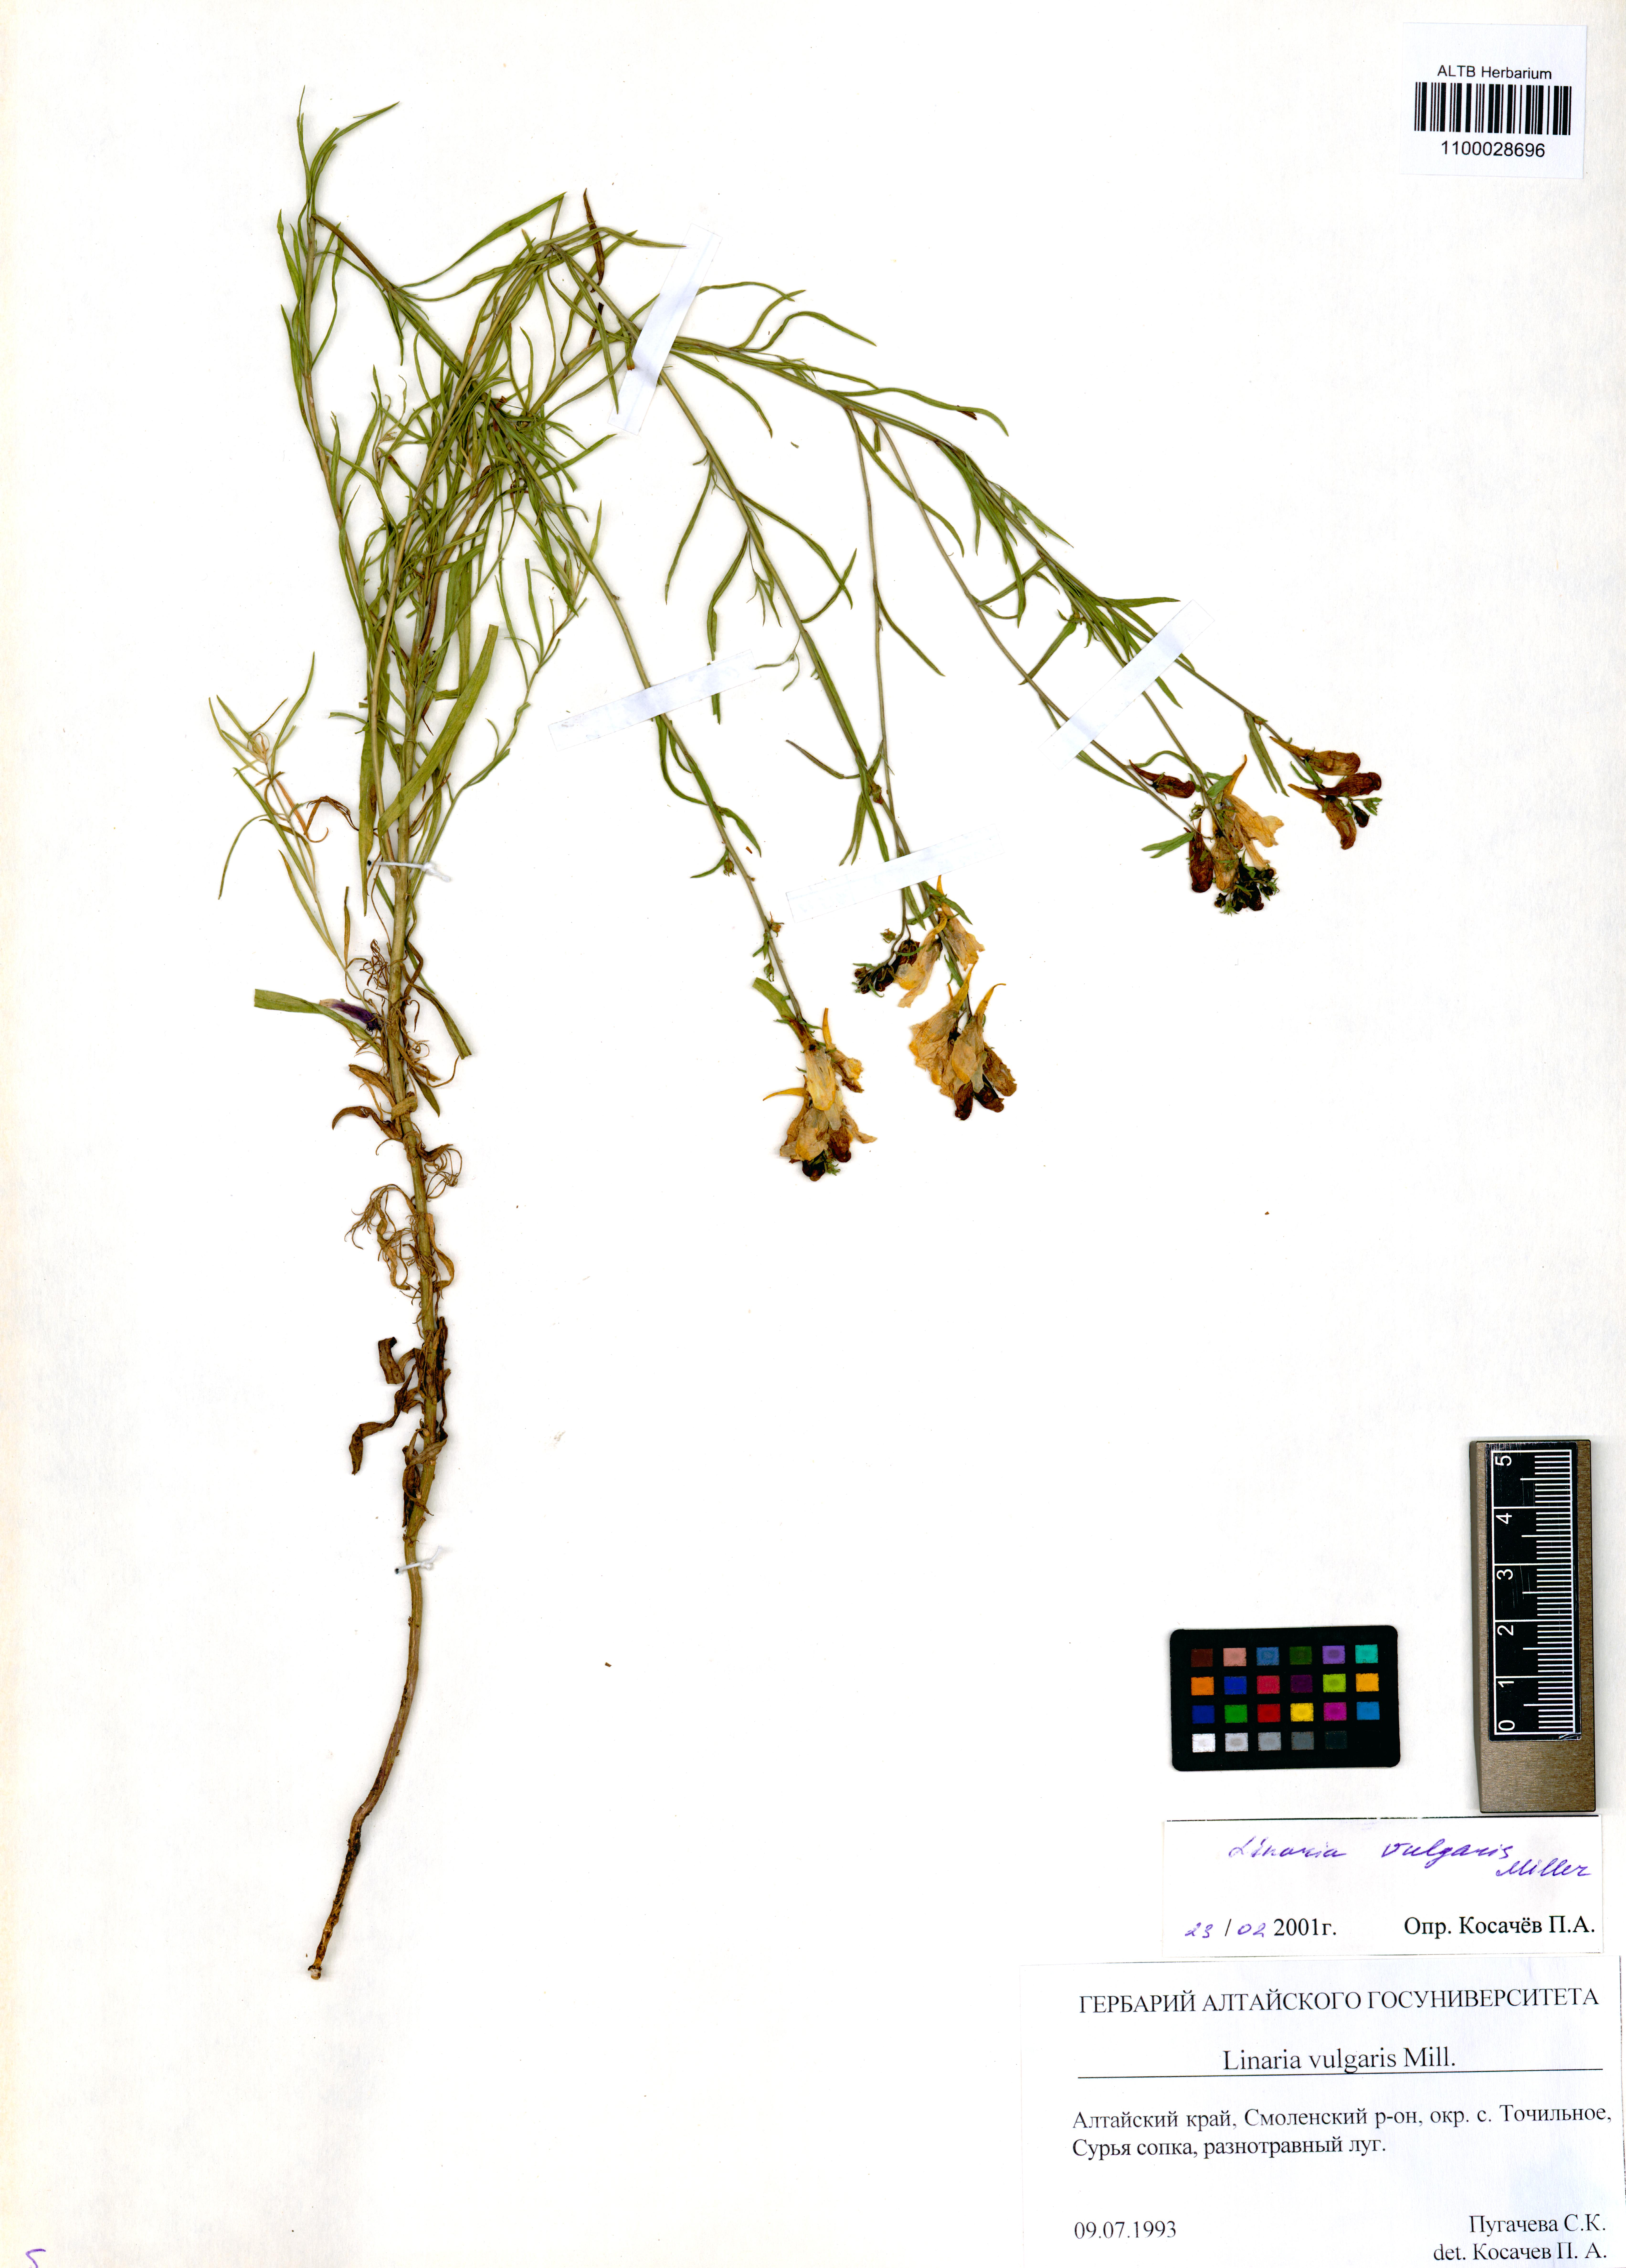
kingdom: Plantae
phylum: Tracheophyta
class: Magnoliopsida
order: Lamiales
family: Plantaginaceae
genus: Linaria
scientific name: Linaria vulgaris
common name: Butter and eggs
